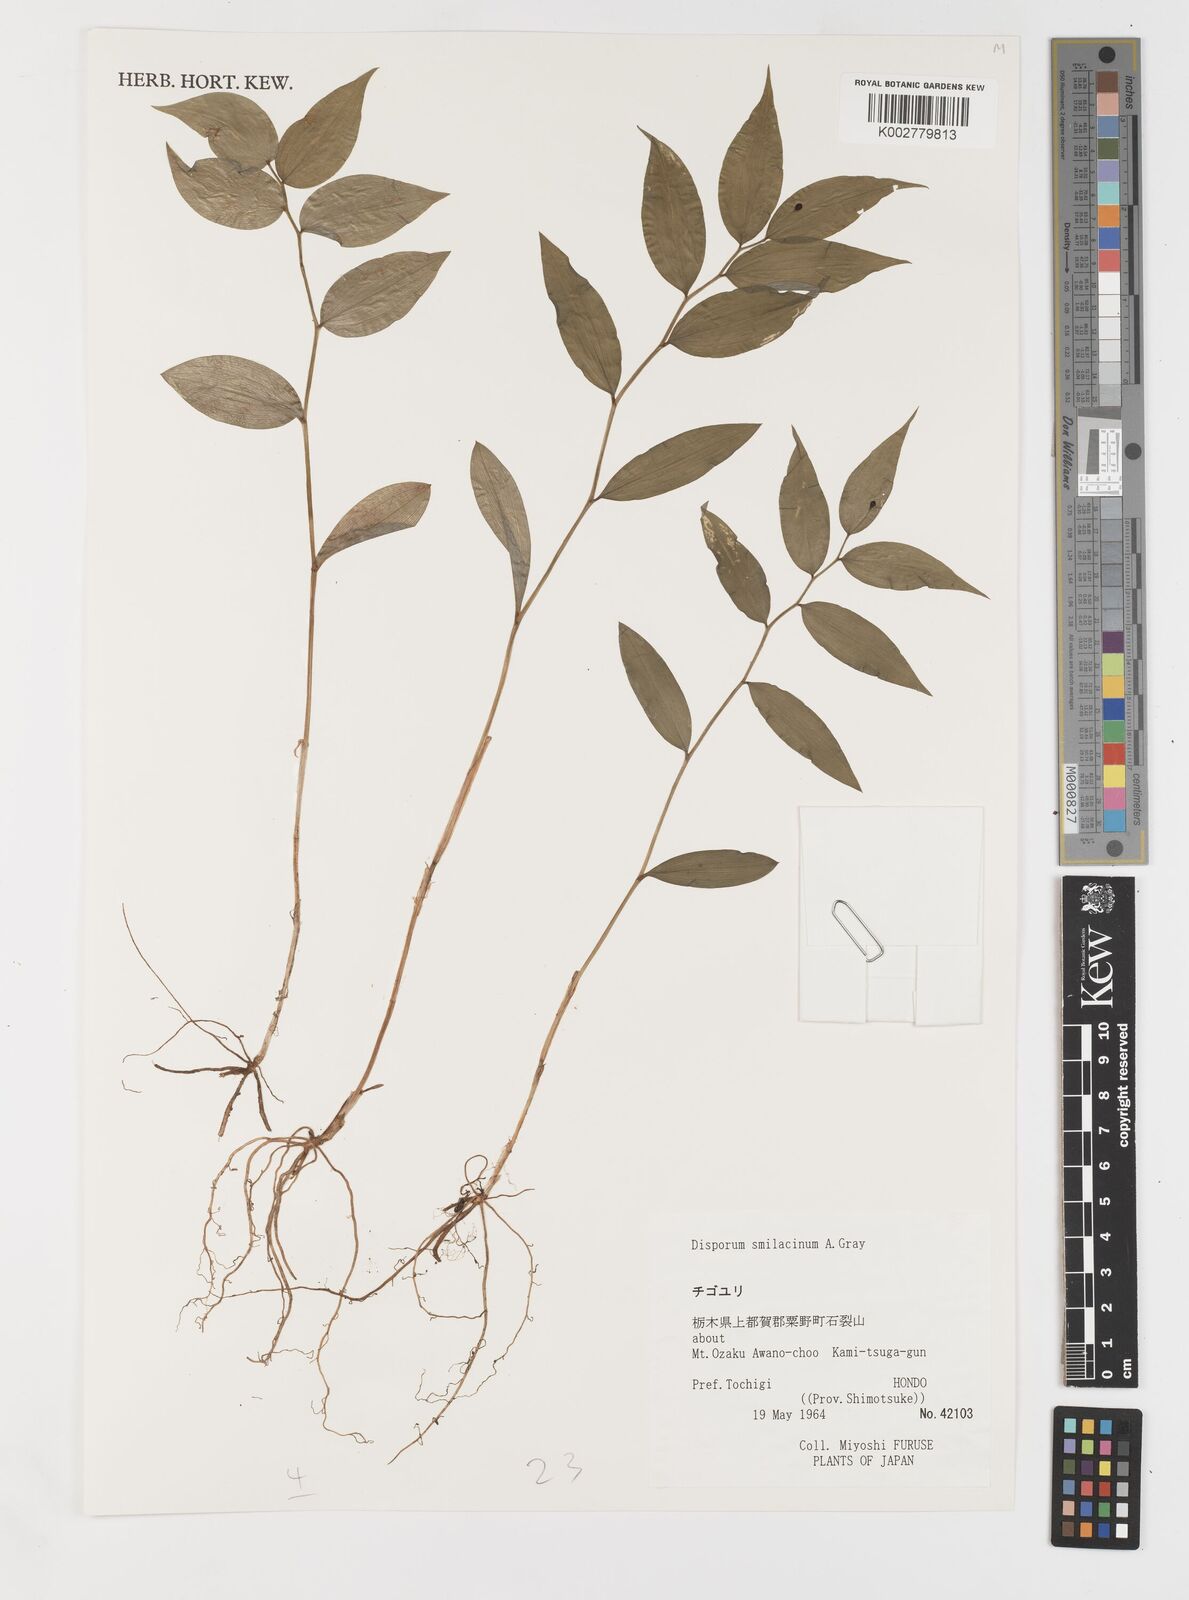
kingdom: Plantae
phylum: Tracheophyta
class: Liliopsida
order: Liliales
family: Colchicaceae
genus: Disporum
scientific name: Disporum smilacinum
